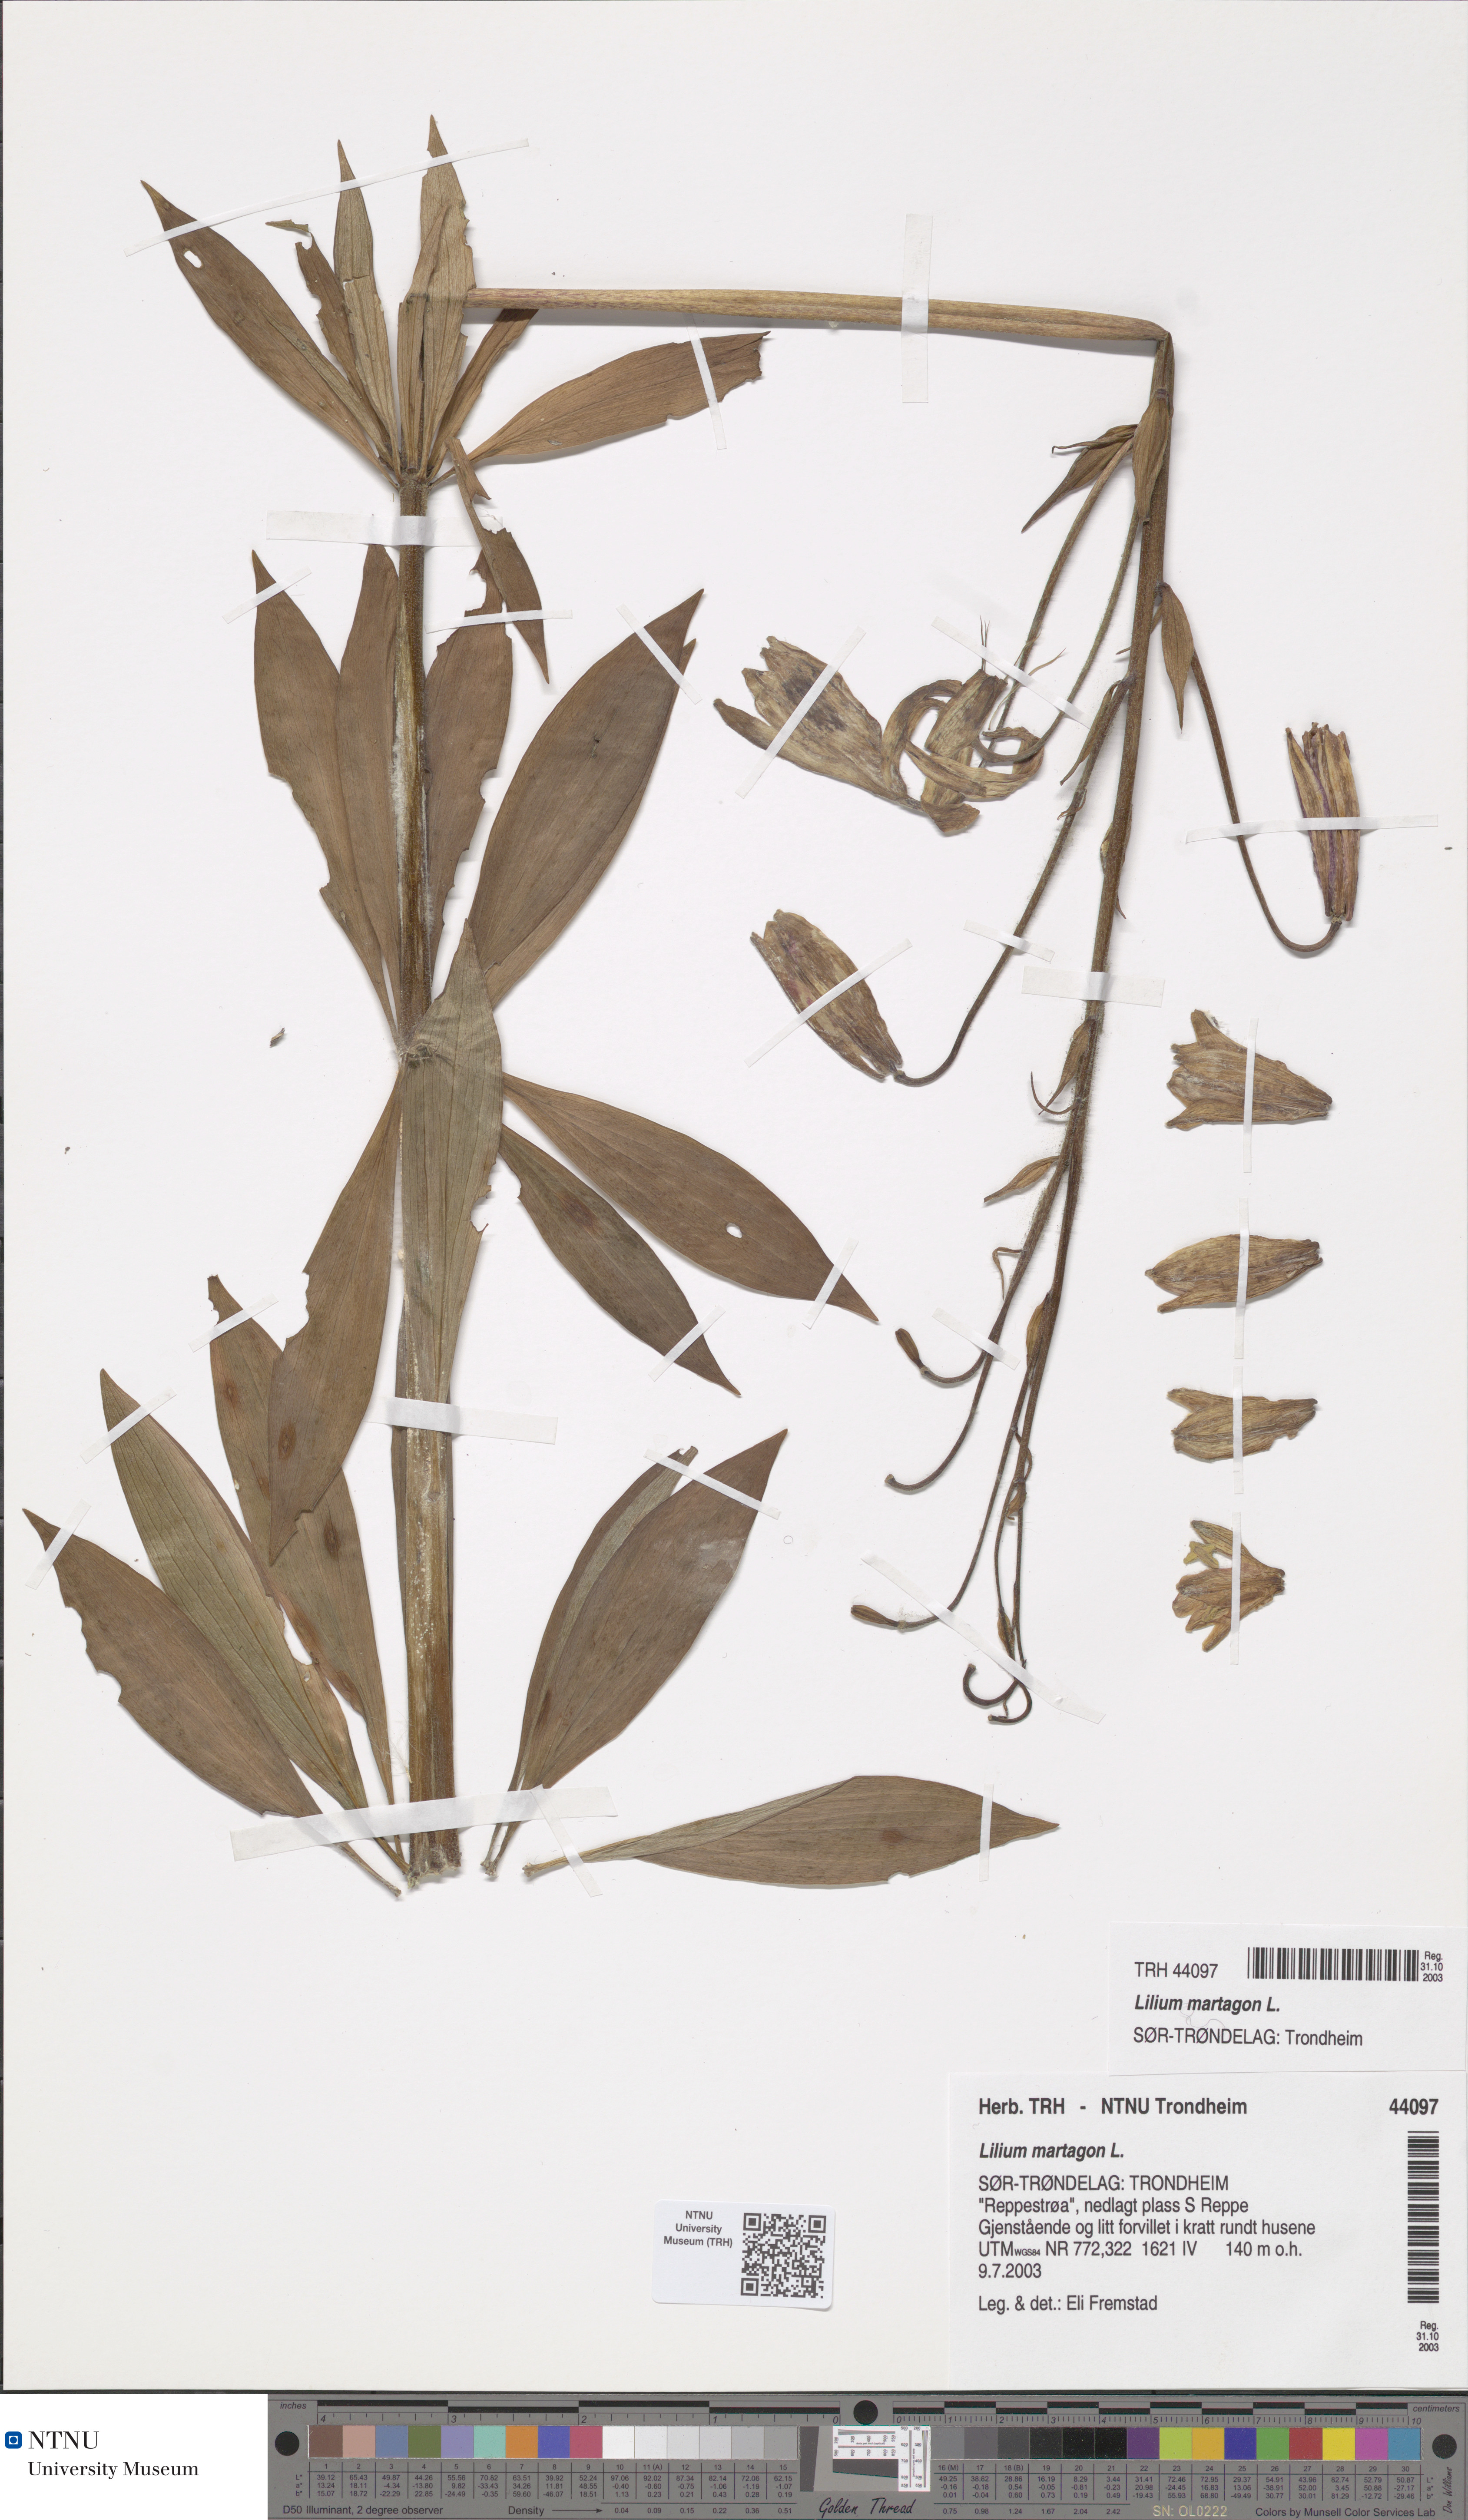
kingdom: Plantae
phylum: Tracheophyta
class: Liliopsida
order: Liliales
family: Liliaceae
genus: Lilium
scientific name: Lilium martagon
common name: Martagon lily
